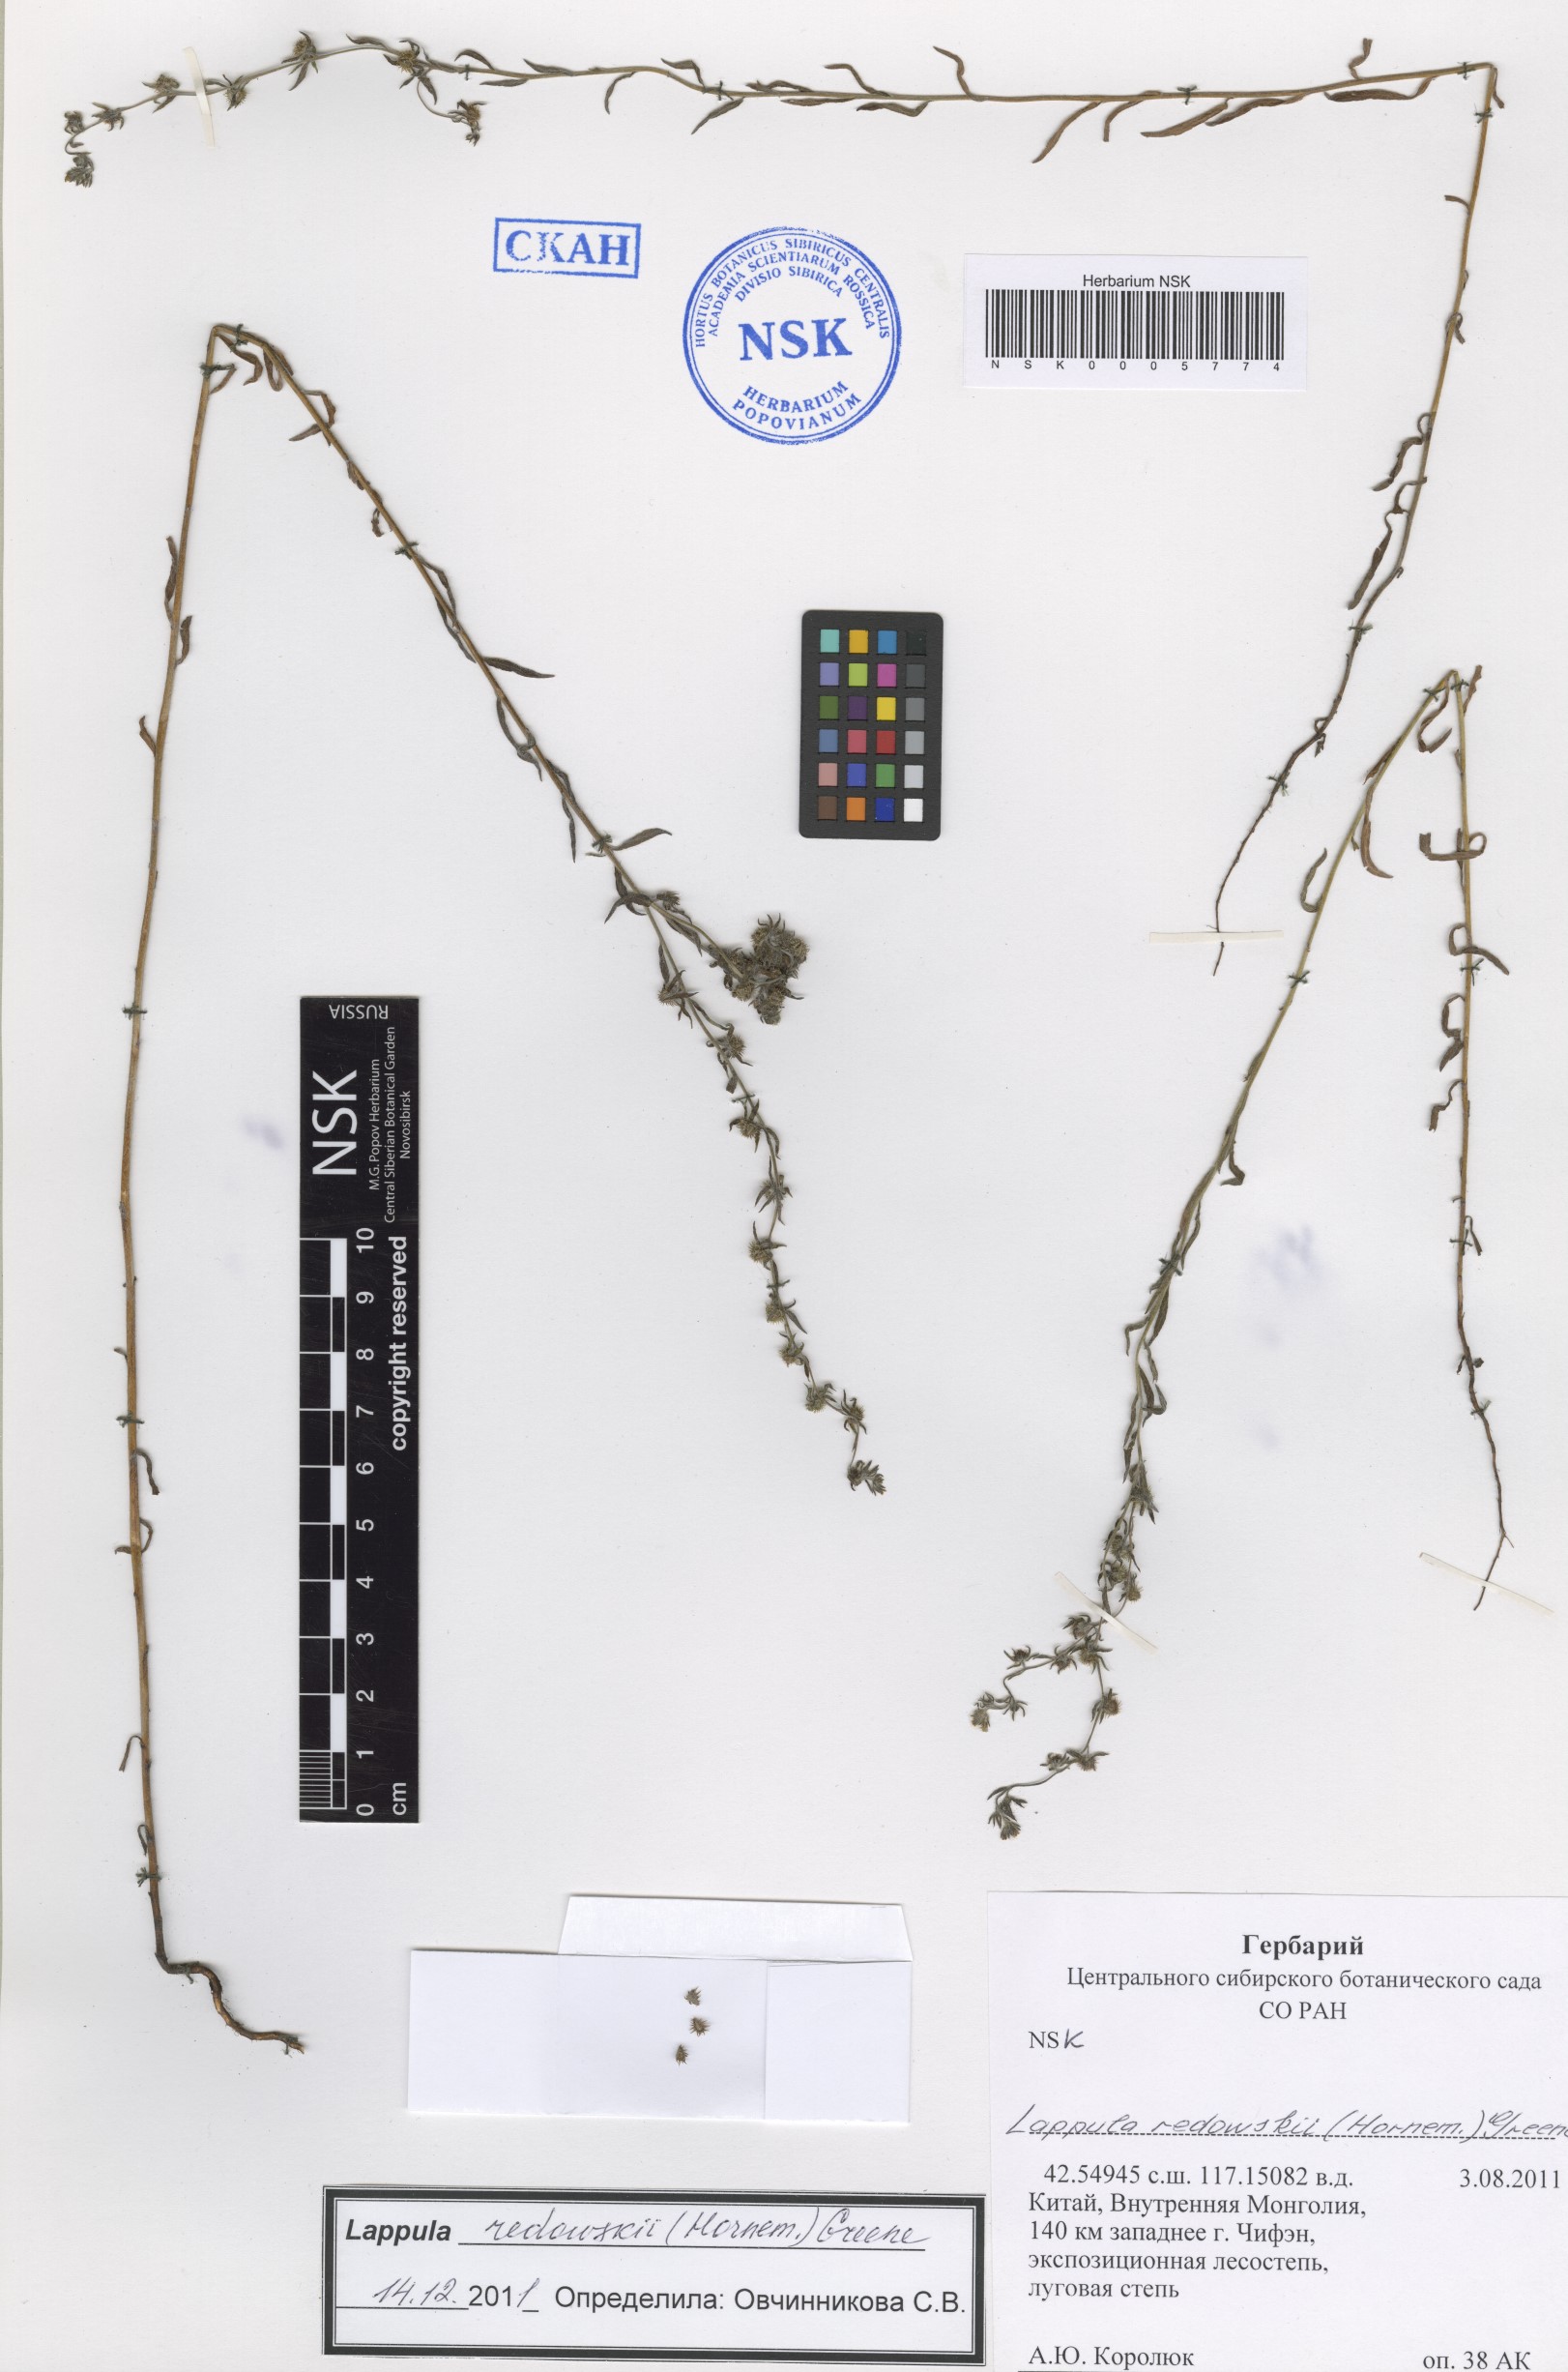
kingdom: Plantae
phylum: Tracheophyta
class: Magnoliopsida
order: Boraginales
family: Boraginaceae
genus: Lappula
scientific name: Lappula redowskii
